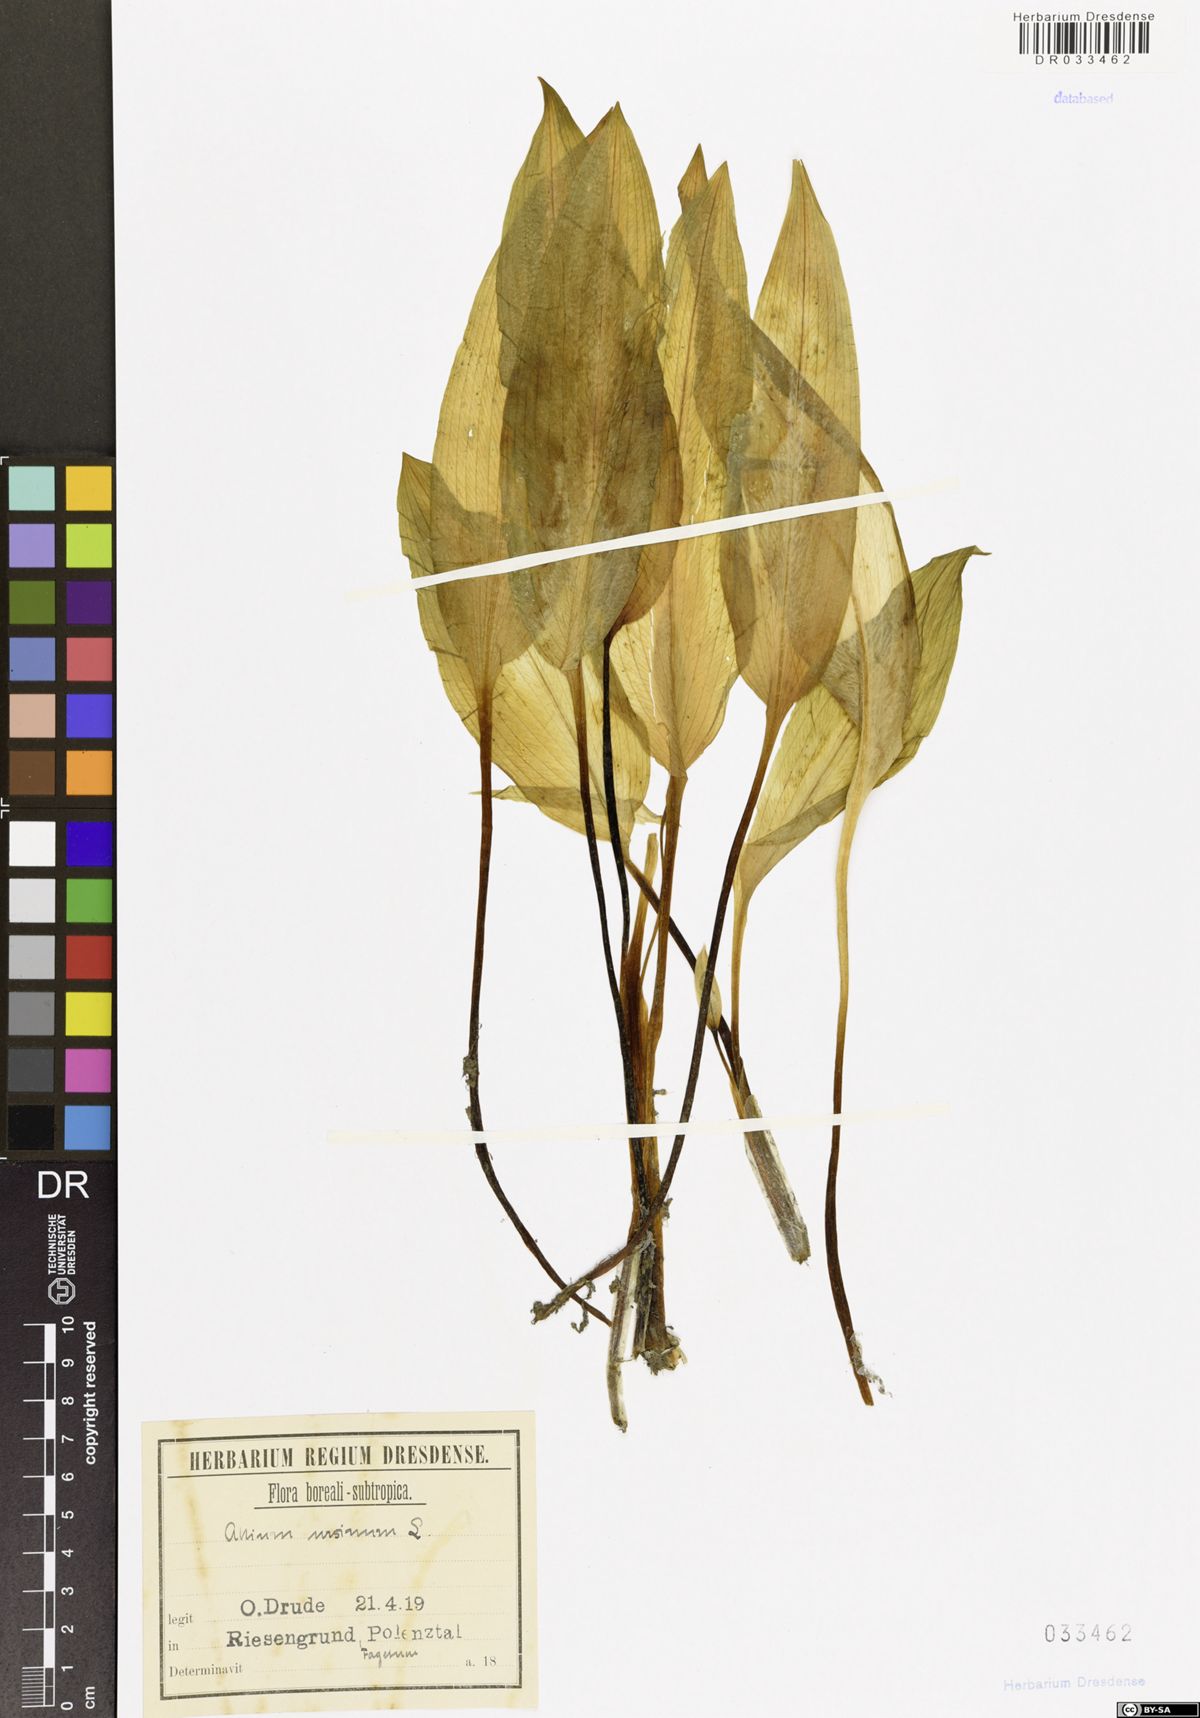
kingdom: Plantae
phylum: Tracheophyta
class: Liliopsida
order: Asparagales
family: Amaryllidaceae
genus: Allium
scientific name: Allium ursinum
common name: Ramsons
